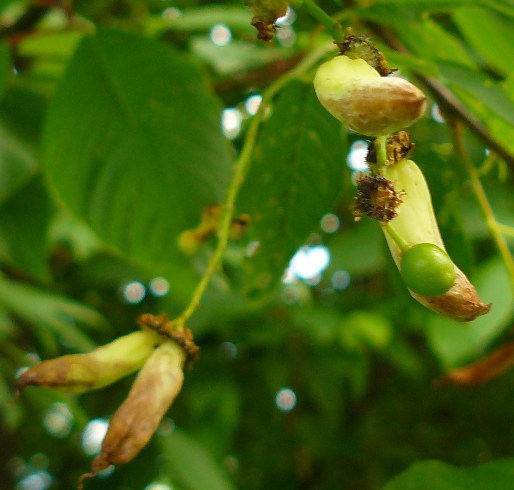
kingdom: Fungi
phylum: Ascomycota
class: Taphrinomycetes
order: Taphrinales
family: Taphrinaceae
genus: Taphrina
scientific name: Taphrina pruni
